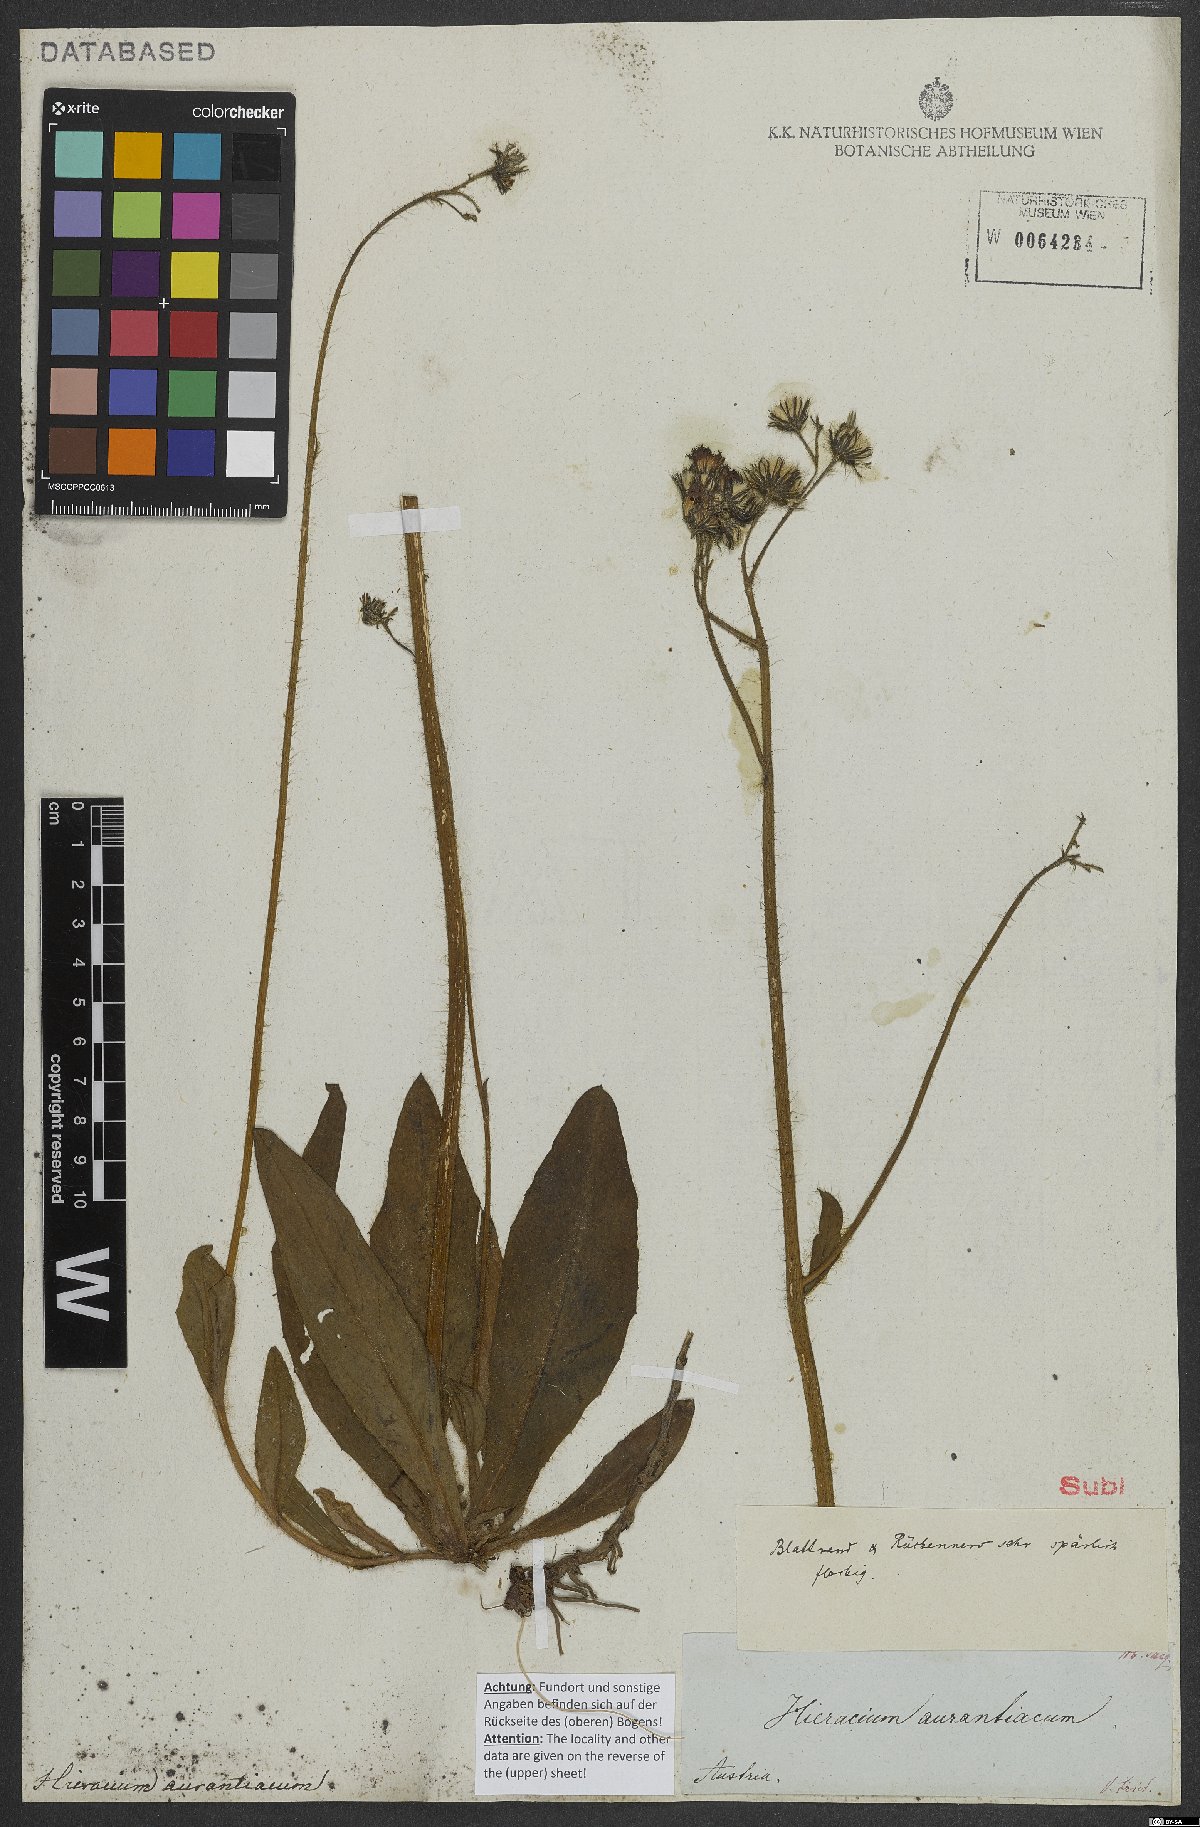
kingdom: Plantae
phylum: Tracheophyta
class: Magnoliopsida
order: Asterales
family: Asteraceae
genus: Pilosella
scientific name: Pilosella aurantiaca
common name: Fox-and-cubs
